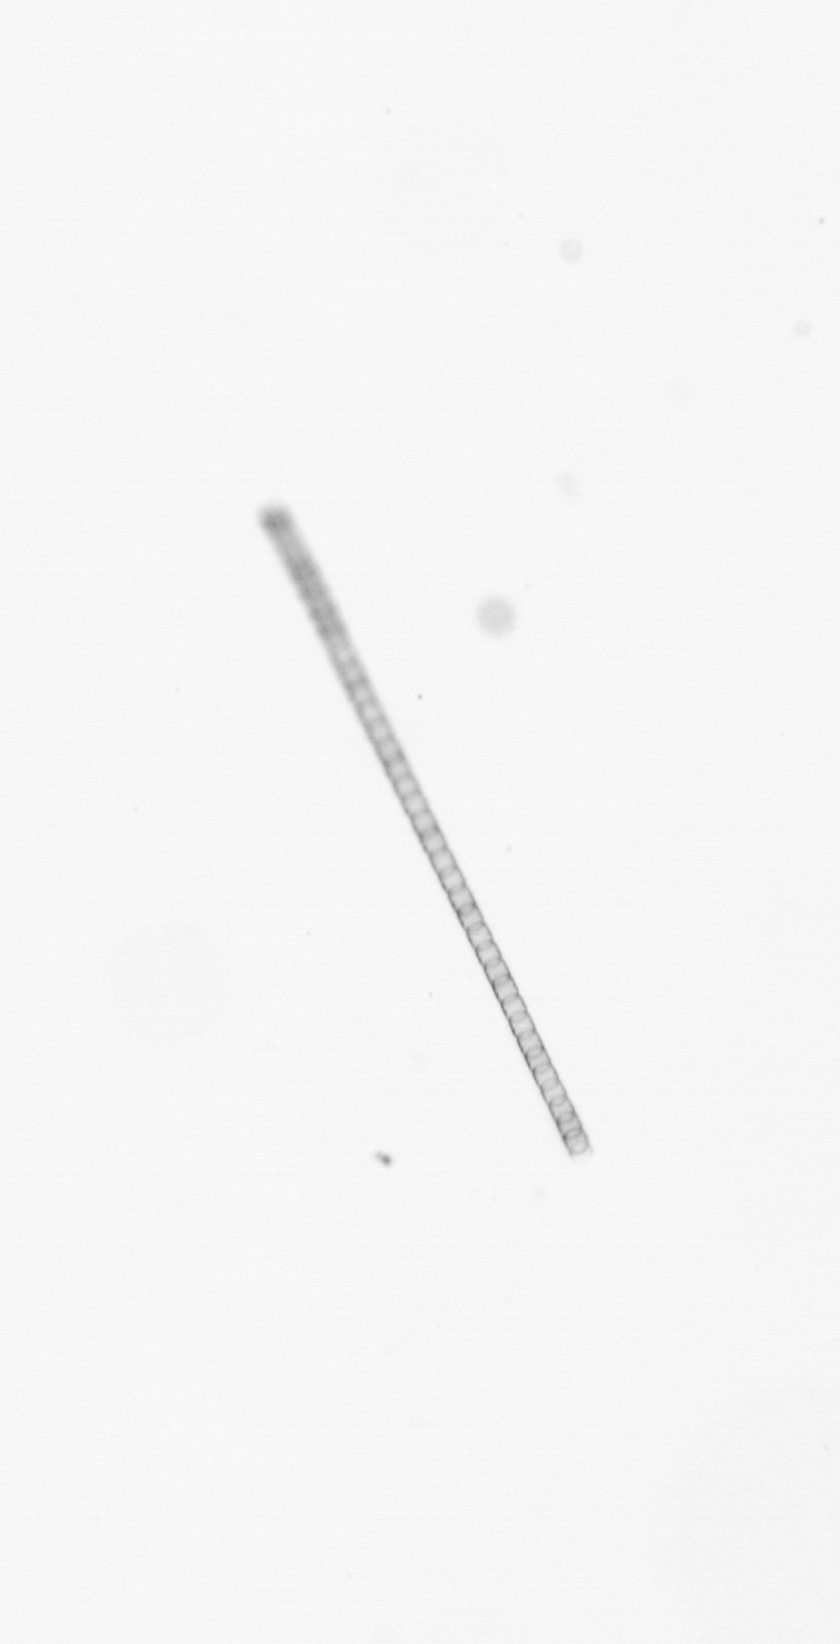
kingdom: Chromista
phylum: Ochrophyta
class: Bacillariophyceae
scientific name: Bacillariophyceae
